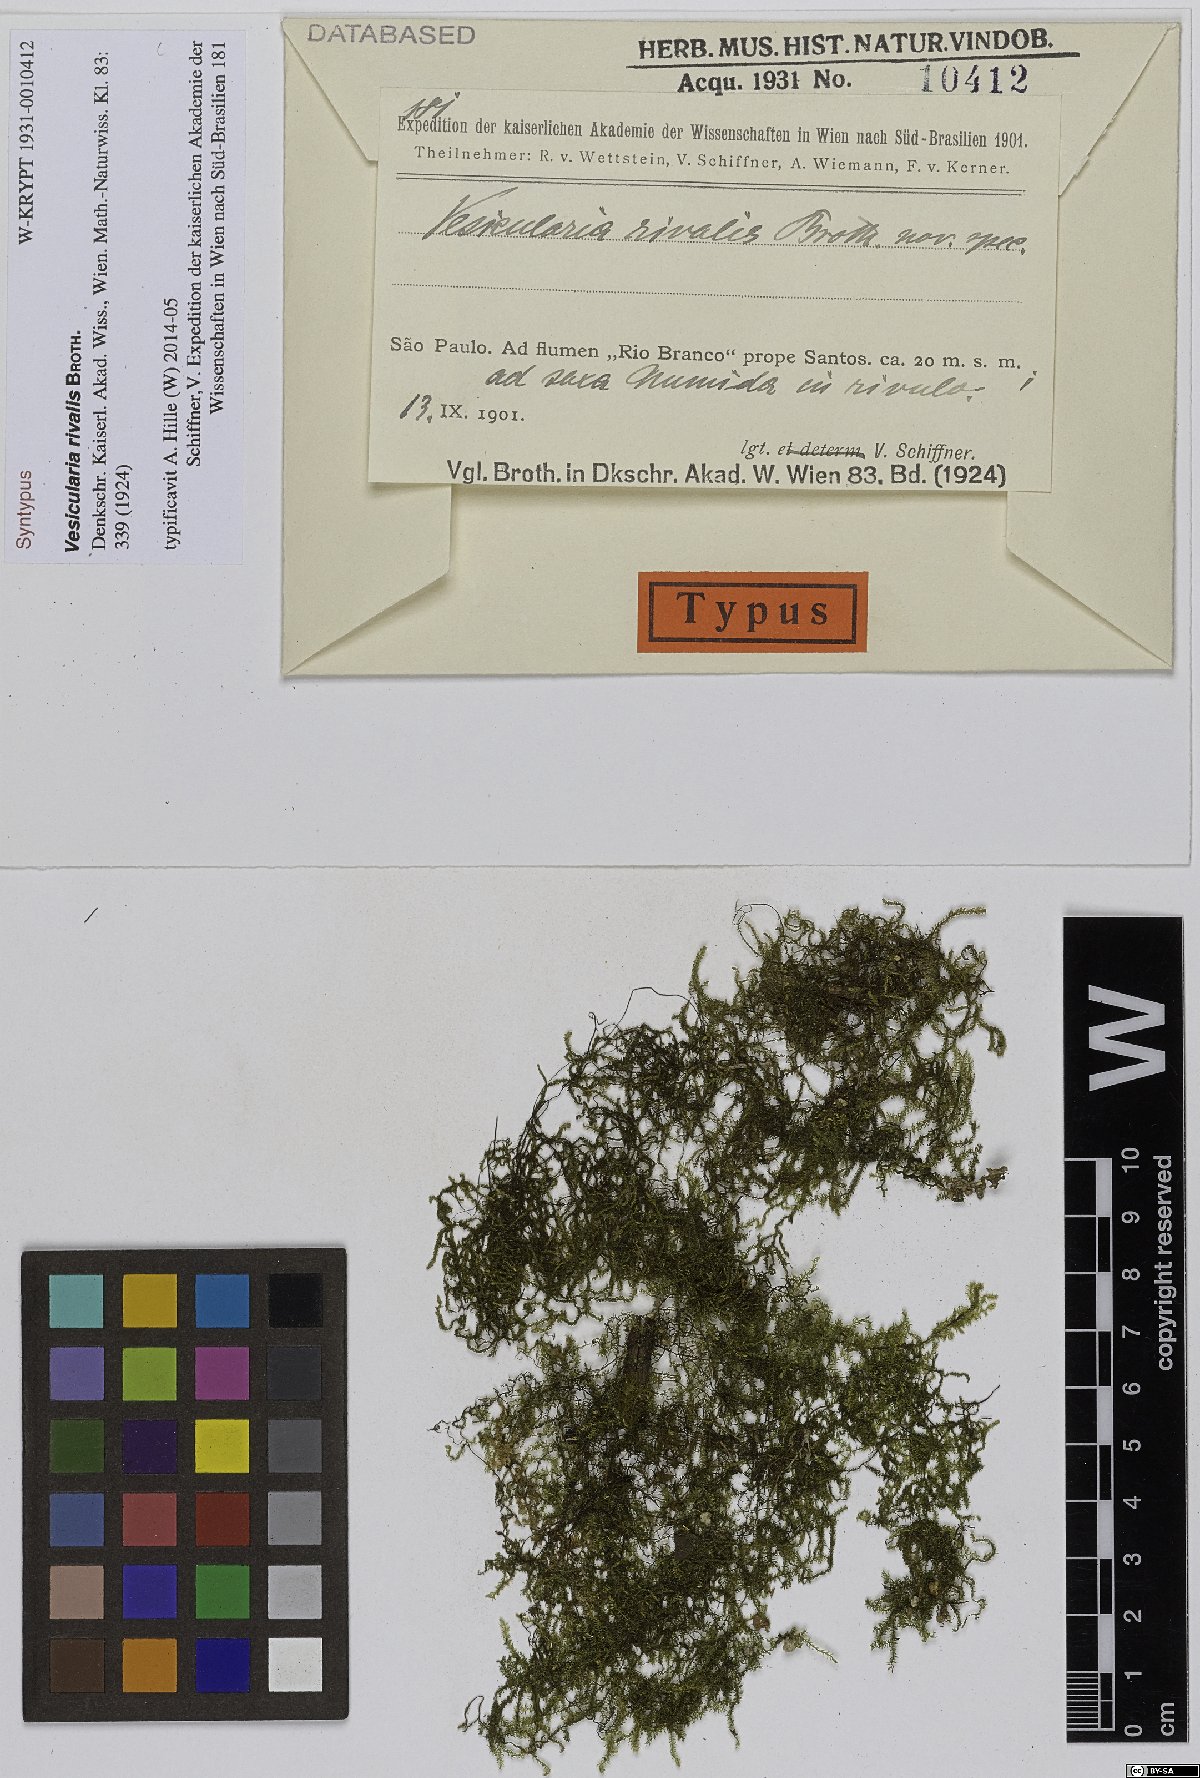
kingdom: Plantae
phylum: Bryophyta
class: Bryopsida
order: Hypnales
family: Hypnaceae
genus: Vesicularia
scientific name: Vesicularia rivalis
